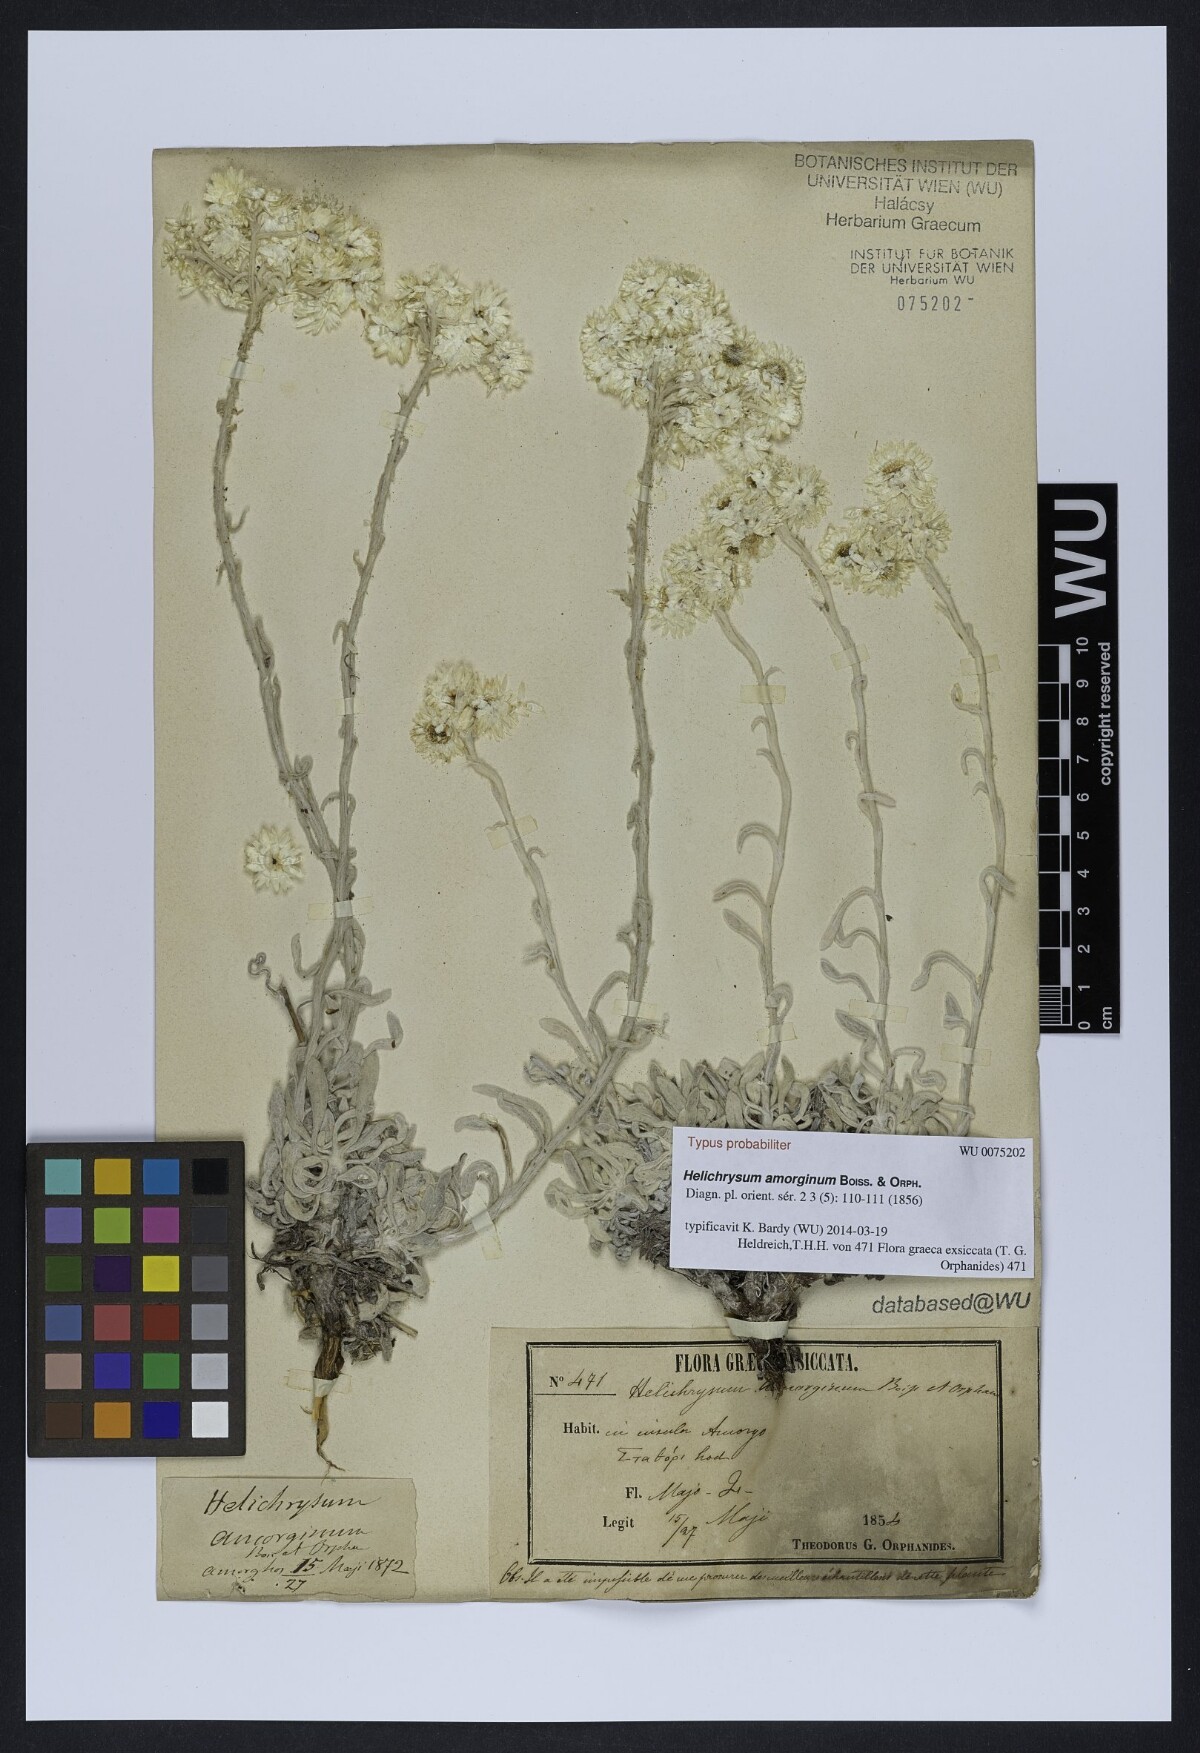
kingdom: Plantae
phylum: Tracheophyta
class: Magnoliopsida
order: Asterales
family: Asteraceae
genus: Helichrysum
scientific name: Helichrysum amorginum
